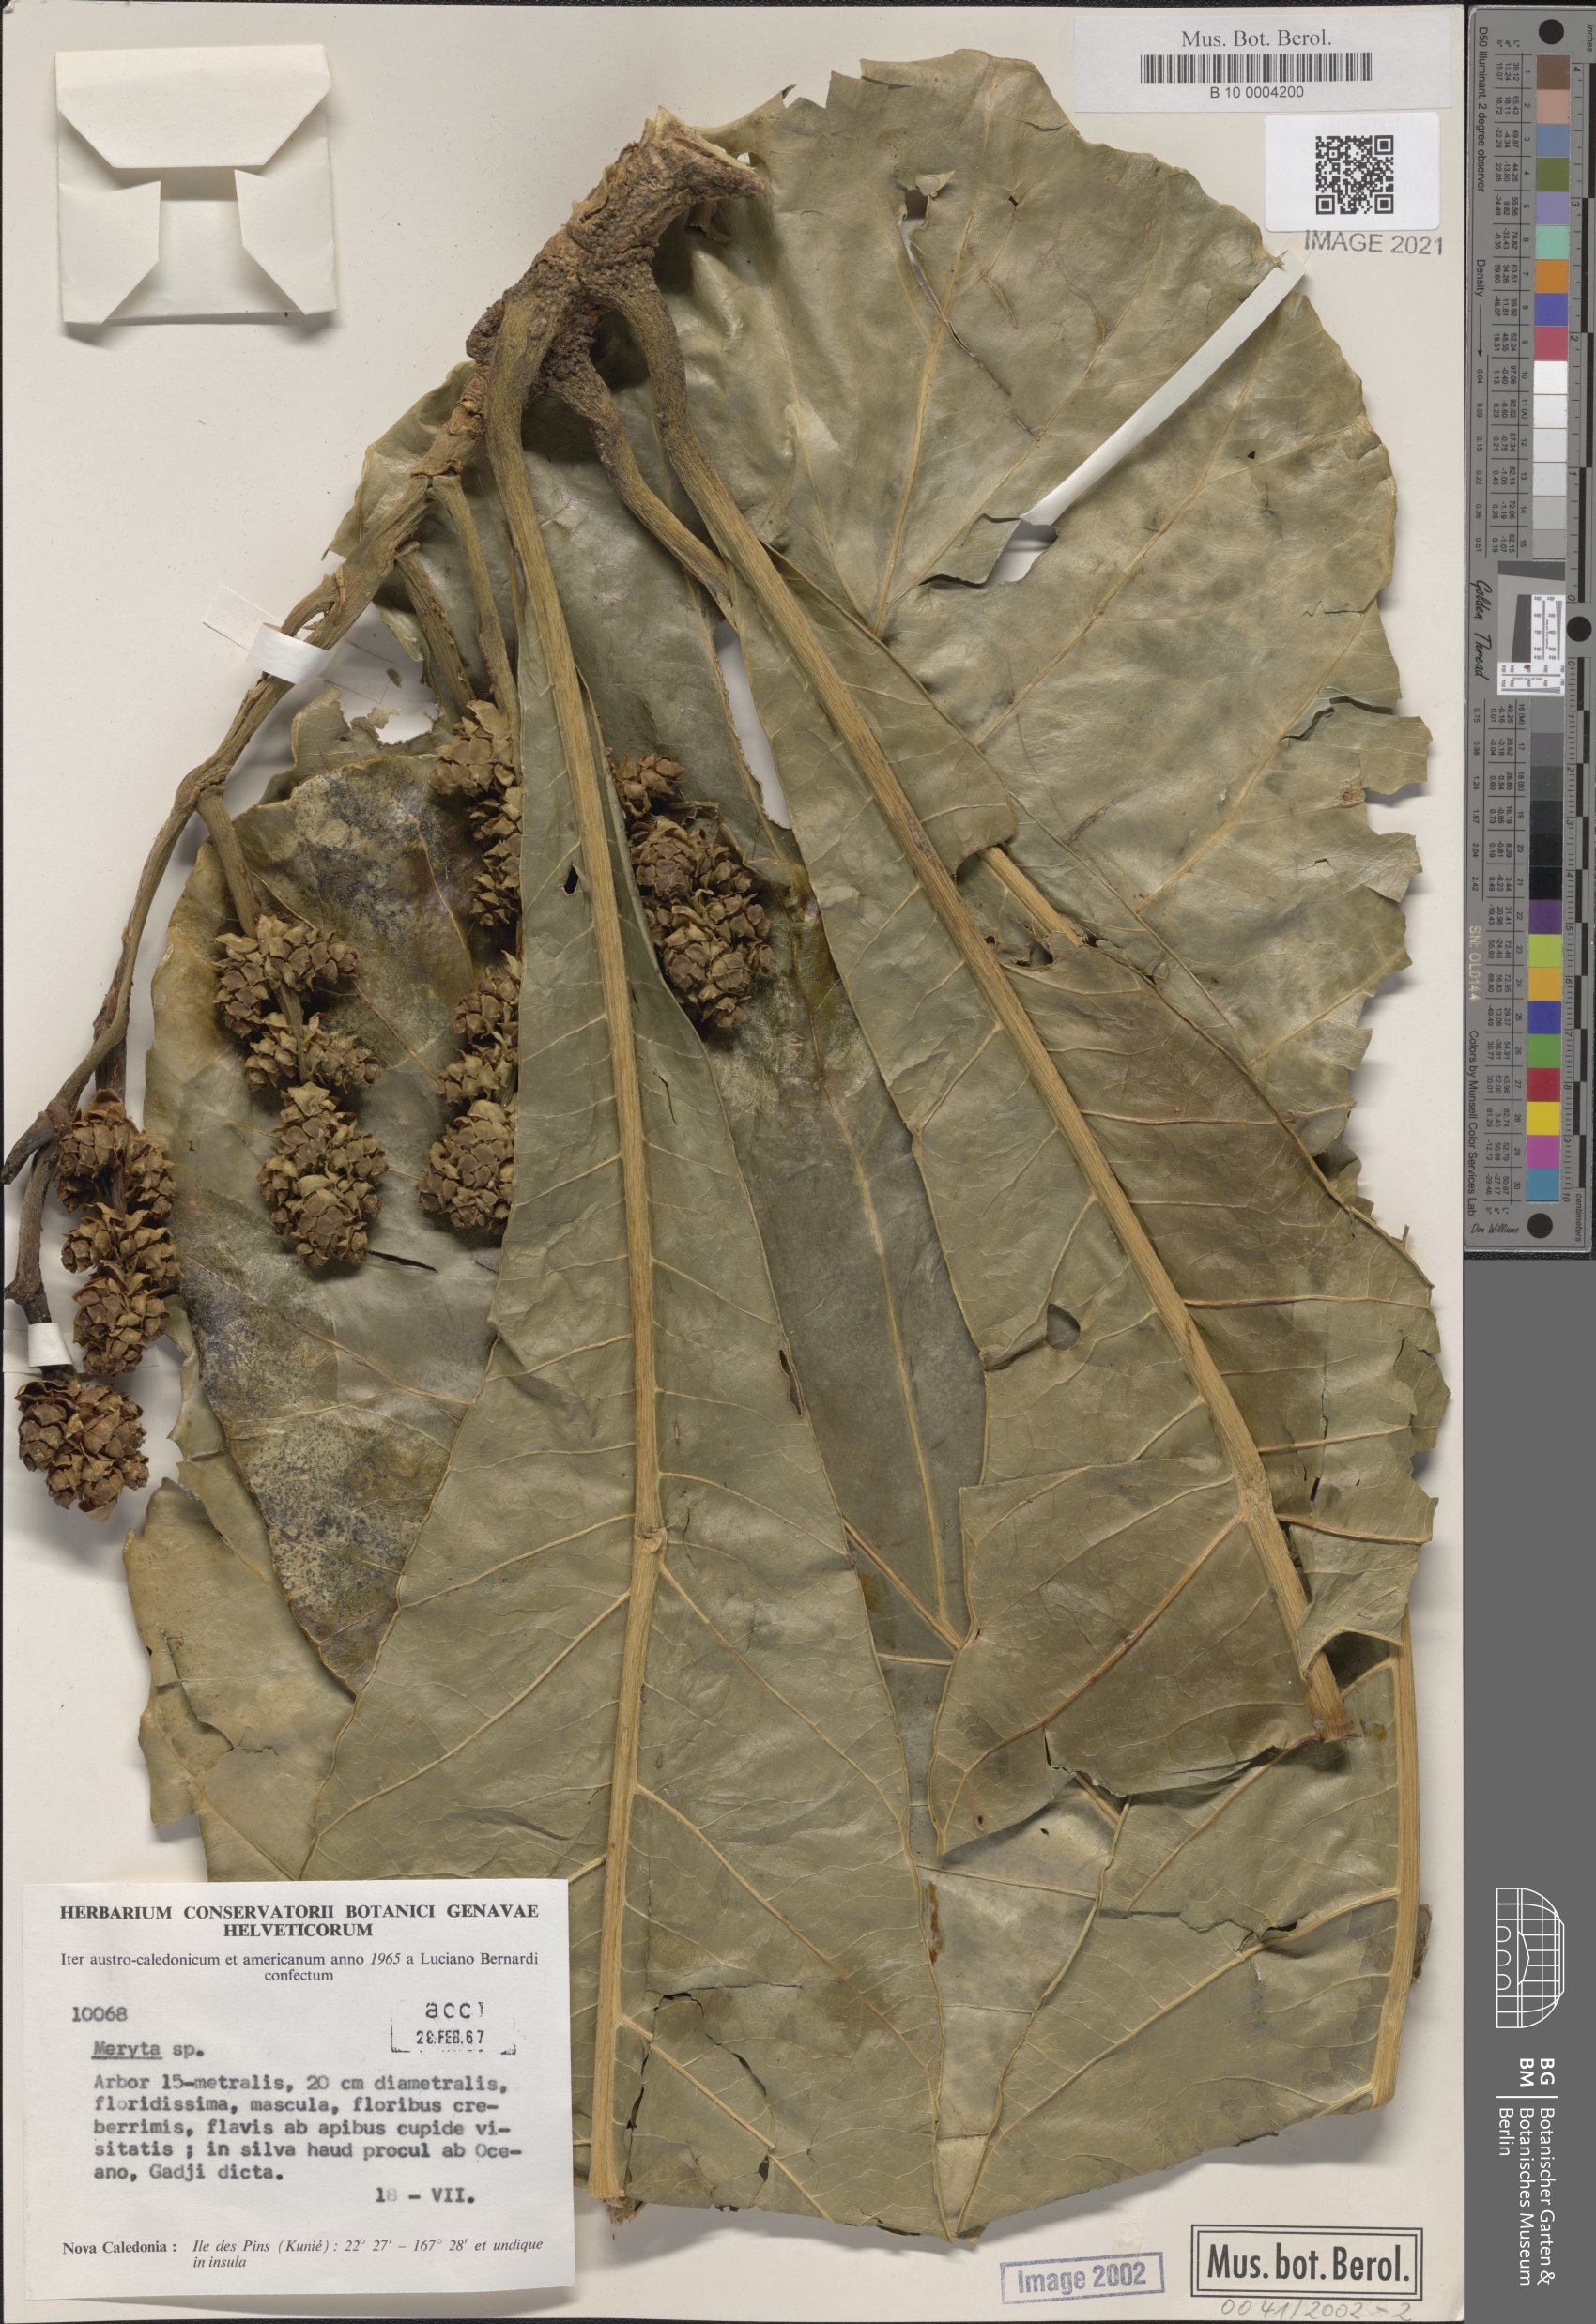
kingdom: Plantae
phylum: Tracheophyta
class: Magnoliopsida
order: Apiales
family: Araliaceae
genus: Meryta
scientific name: Meryta
